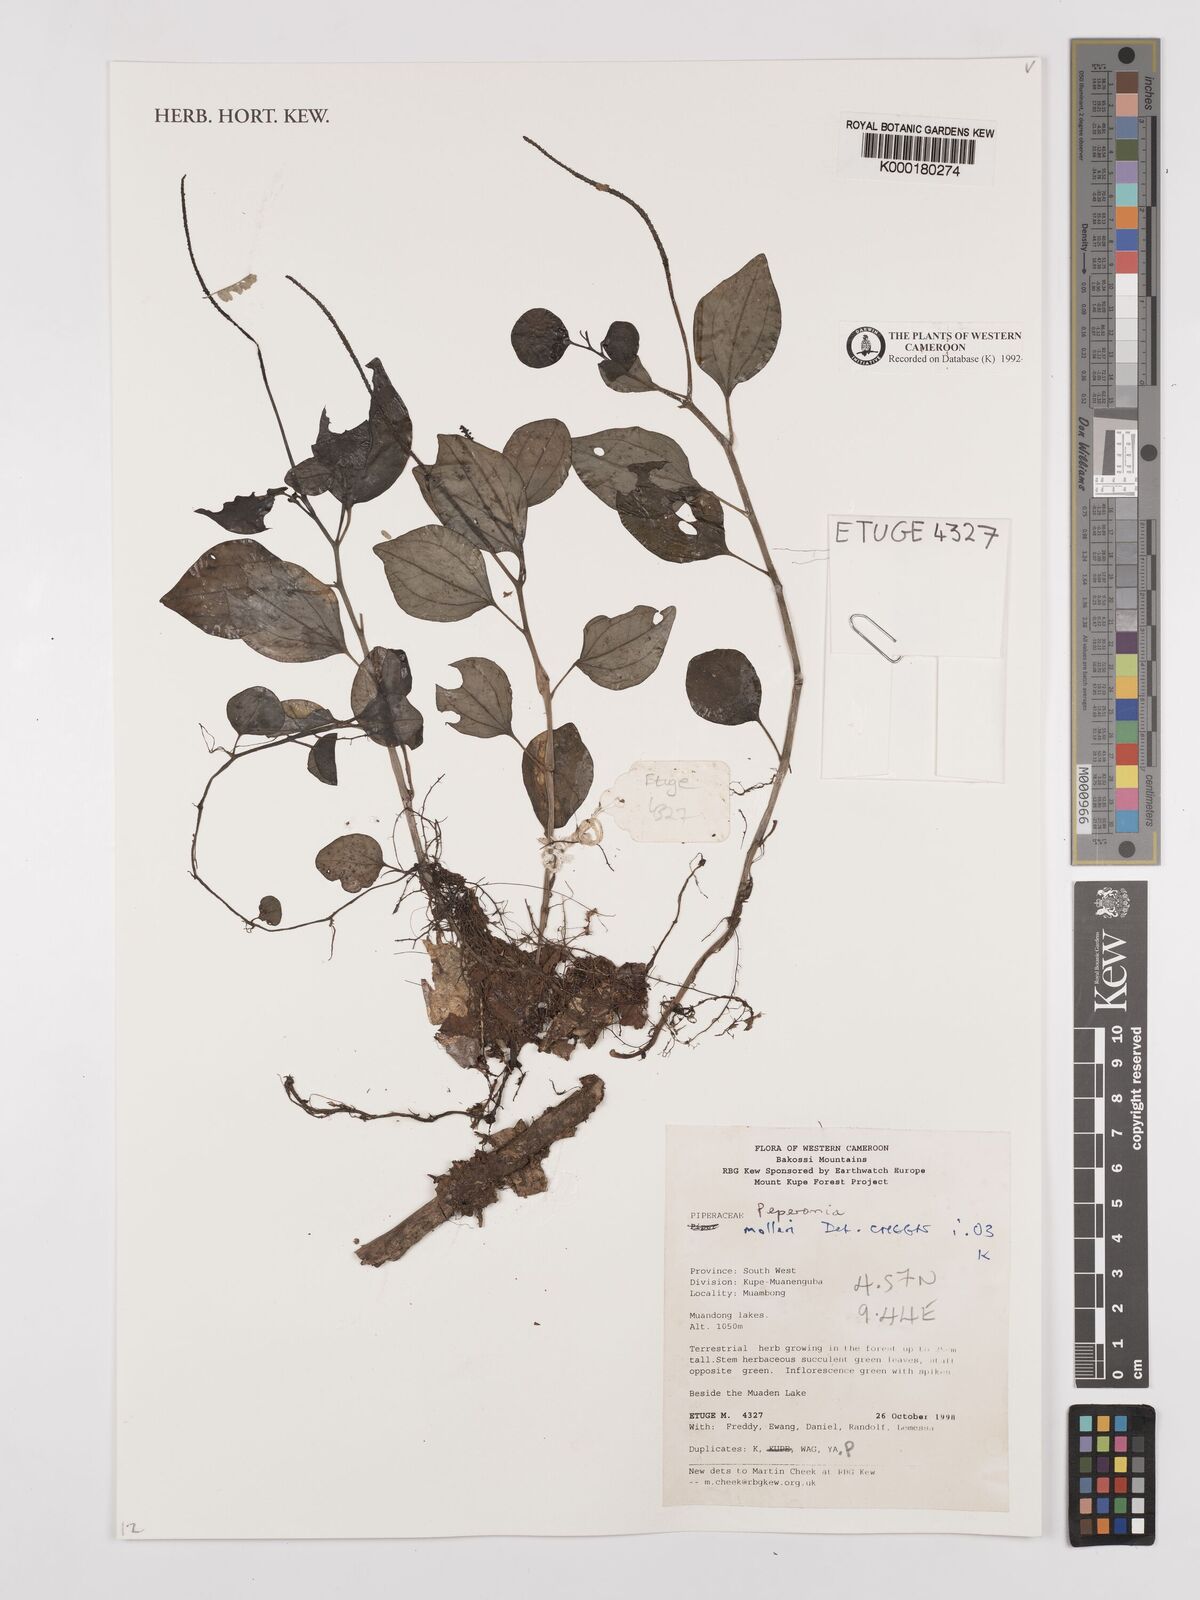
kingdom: Plantae
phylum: Tracheophyta
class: Magnoliopsida
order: Piperales
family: Piperaceae
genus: Peperomia
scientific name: Peperomia molleri
